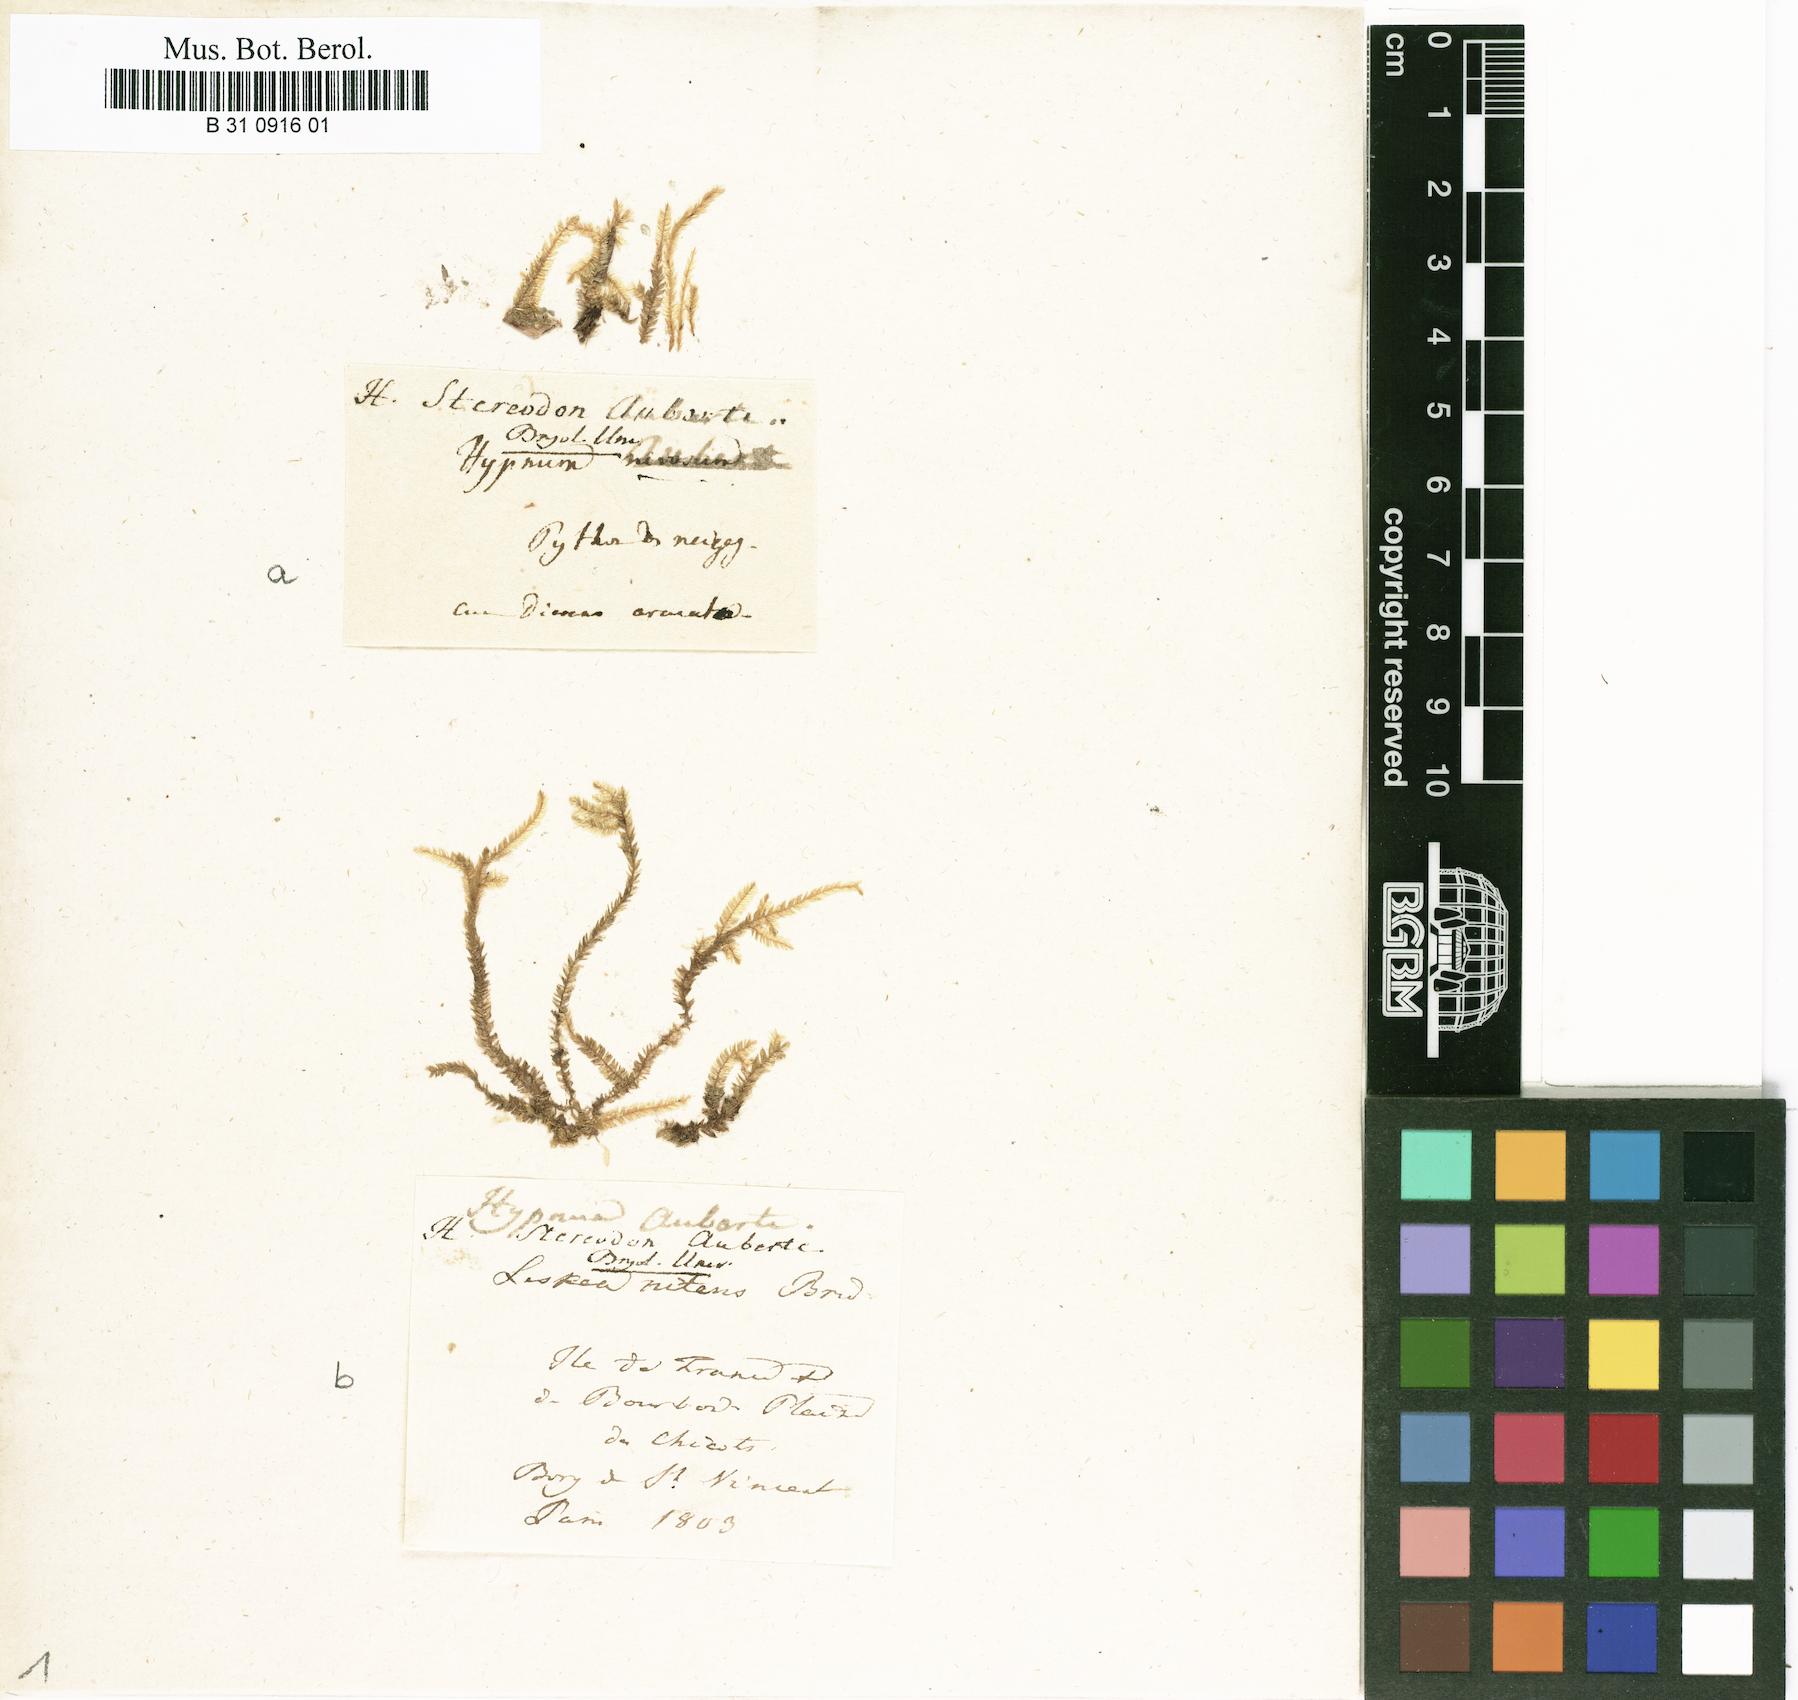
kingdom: Plantae
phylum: Bryophyta
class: Bryopsida
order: Hypnales
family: Catagoniaceae
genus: Catagonium
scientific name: Catagonium nitens
